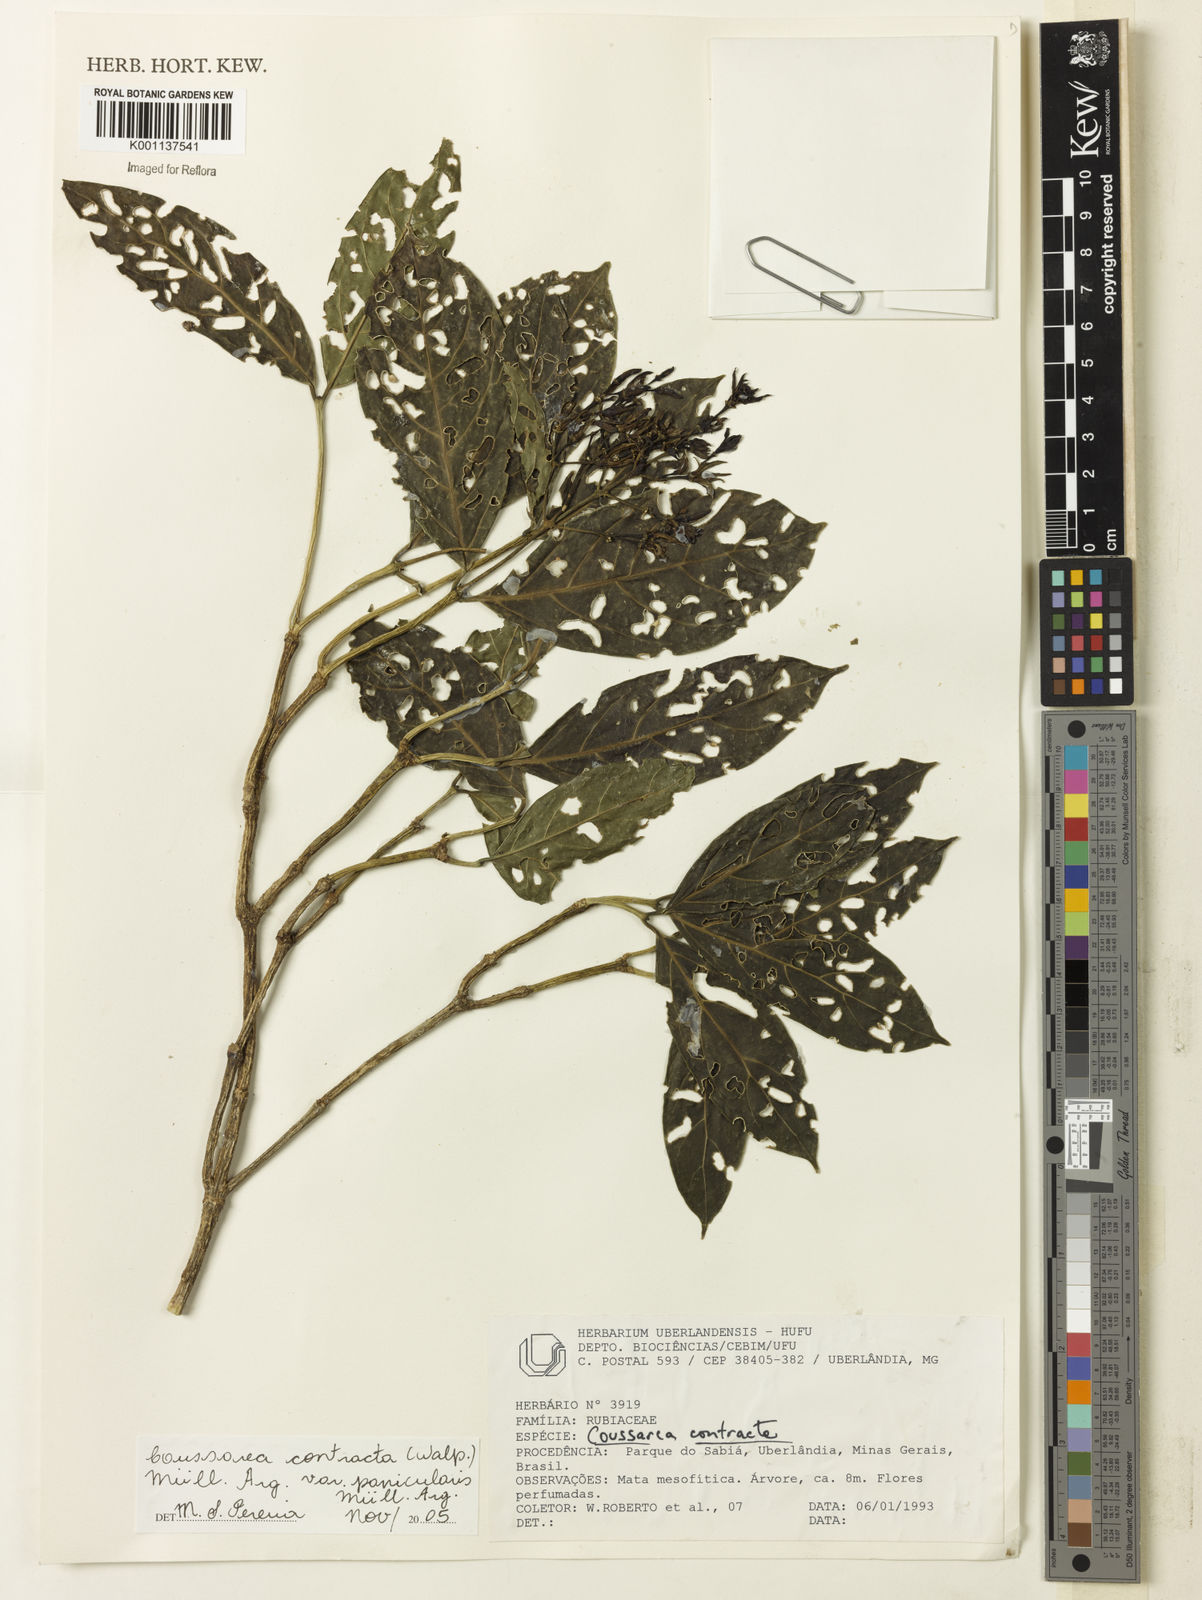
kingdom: Plantae
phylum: Tracheophyta
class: Magnoliopsida
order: Gentianales
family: Rubiaceae
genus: Coussarea
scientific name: Coussarea
